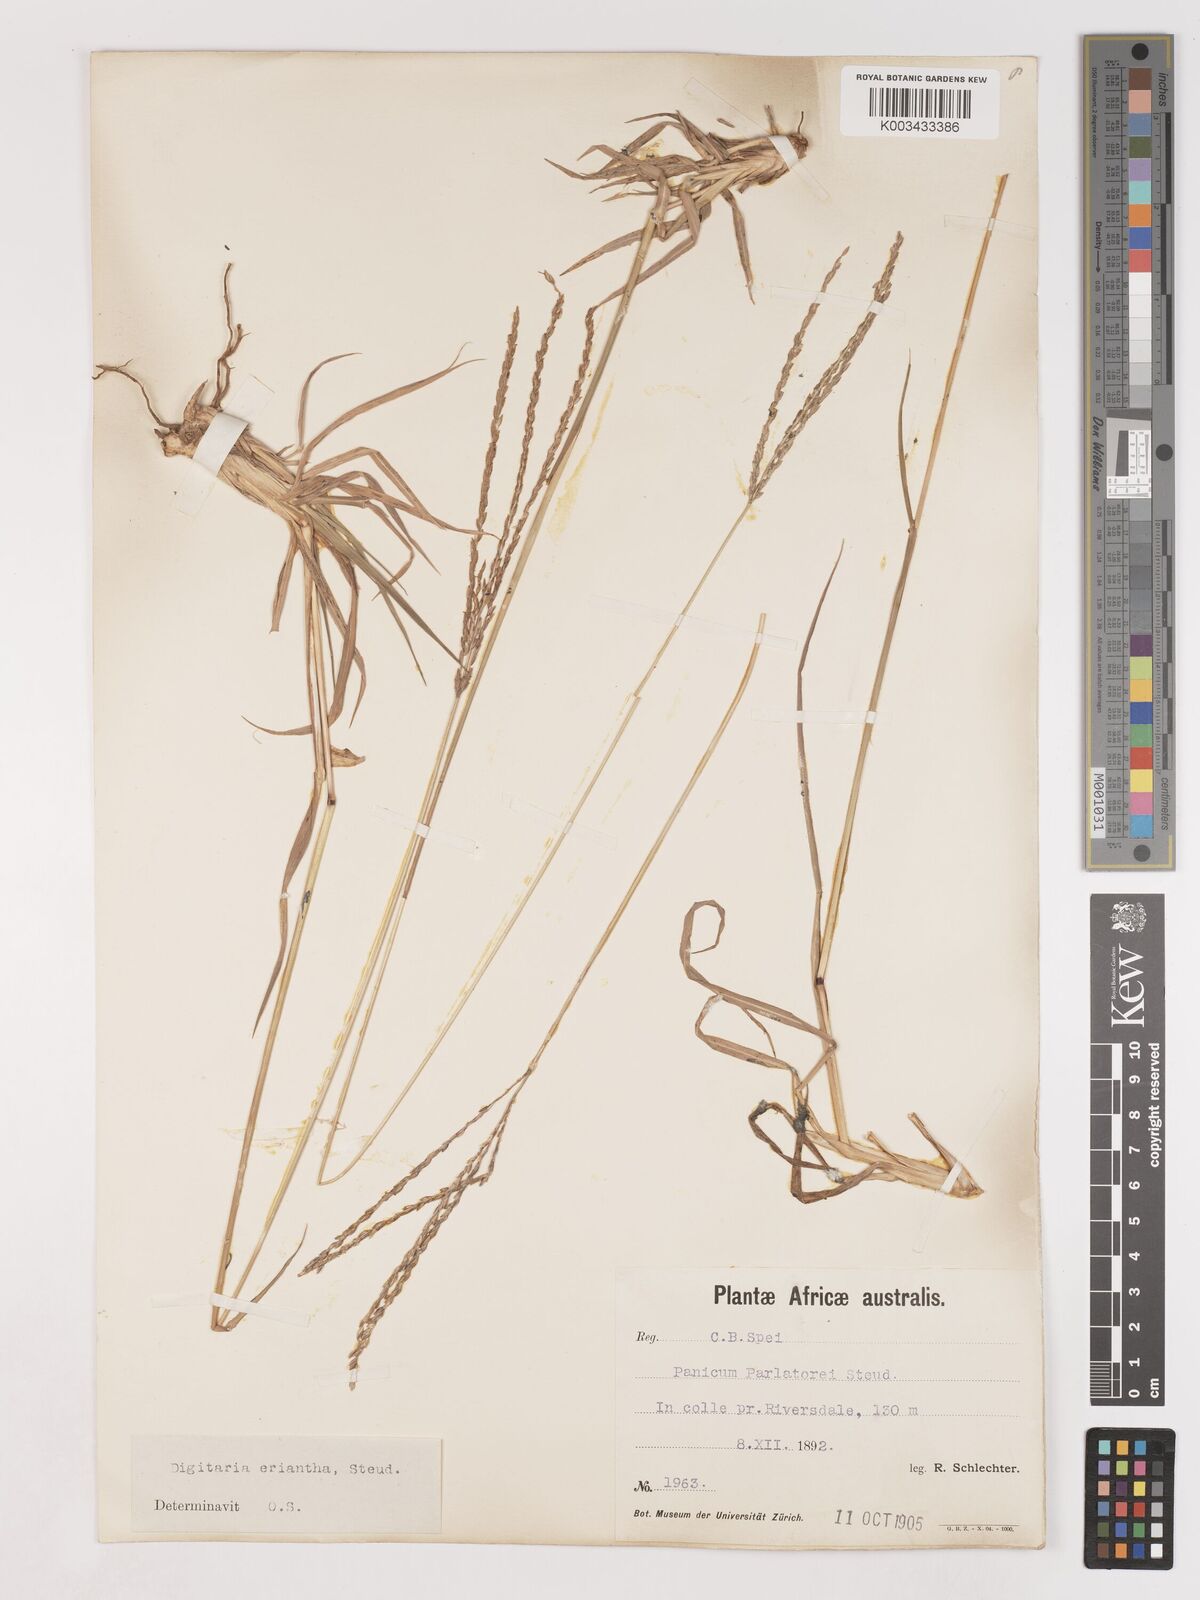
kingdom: Plantae
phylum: Tracheophyta
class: Liliopsida
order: Poales
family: Poaceae
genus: Digitaria
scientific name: Digitaria eriantha
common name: Digitgrass
